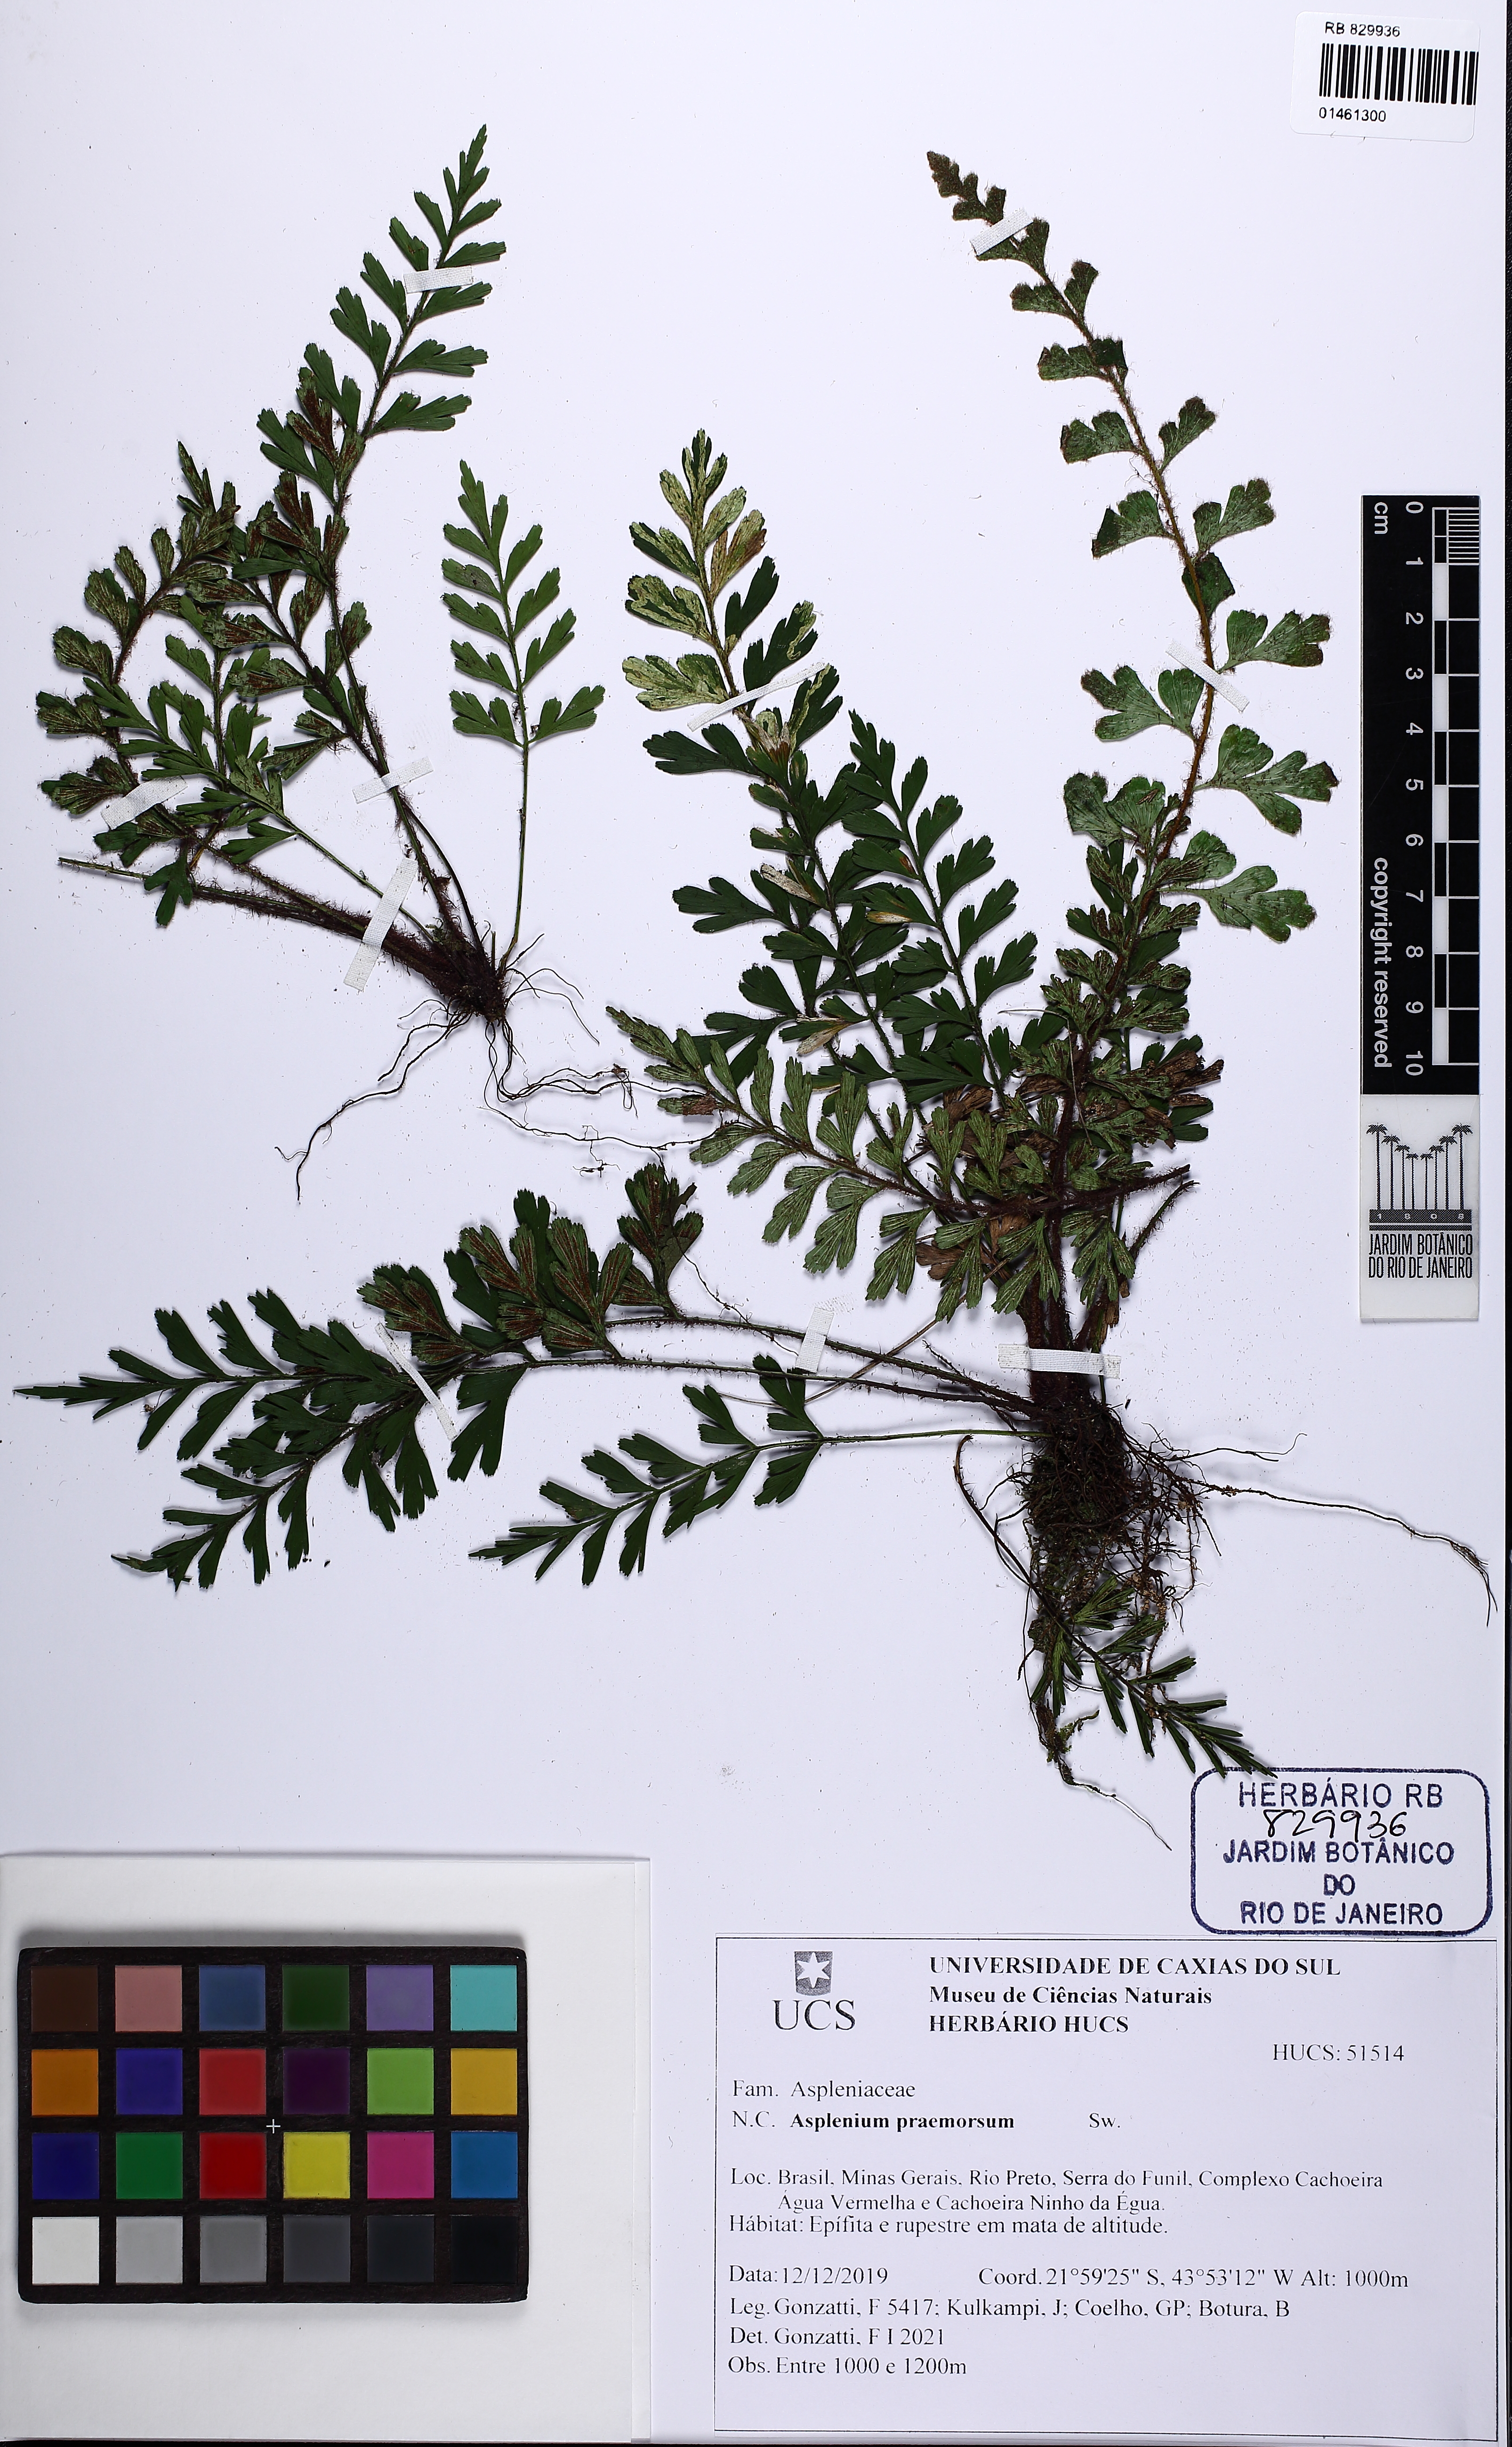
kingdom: Plantae
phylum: Tracheophyta
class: Polypodiopsida
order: Polypodiales
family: Aspleniaceae
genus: Asplenium
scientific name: Asplenium praemorsum
